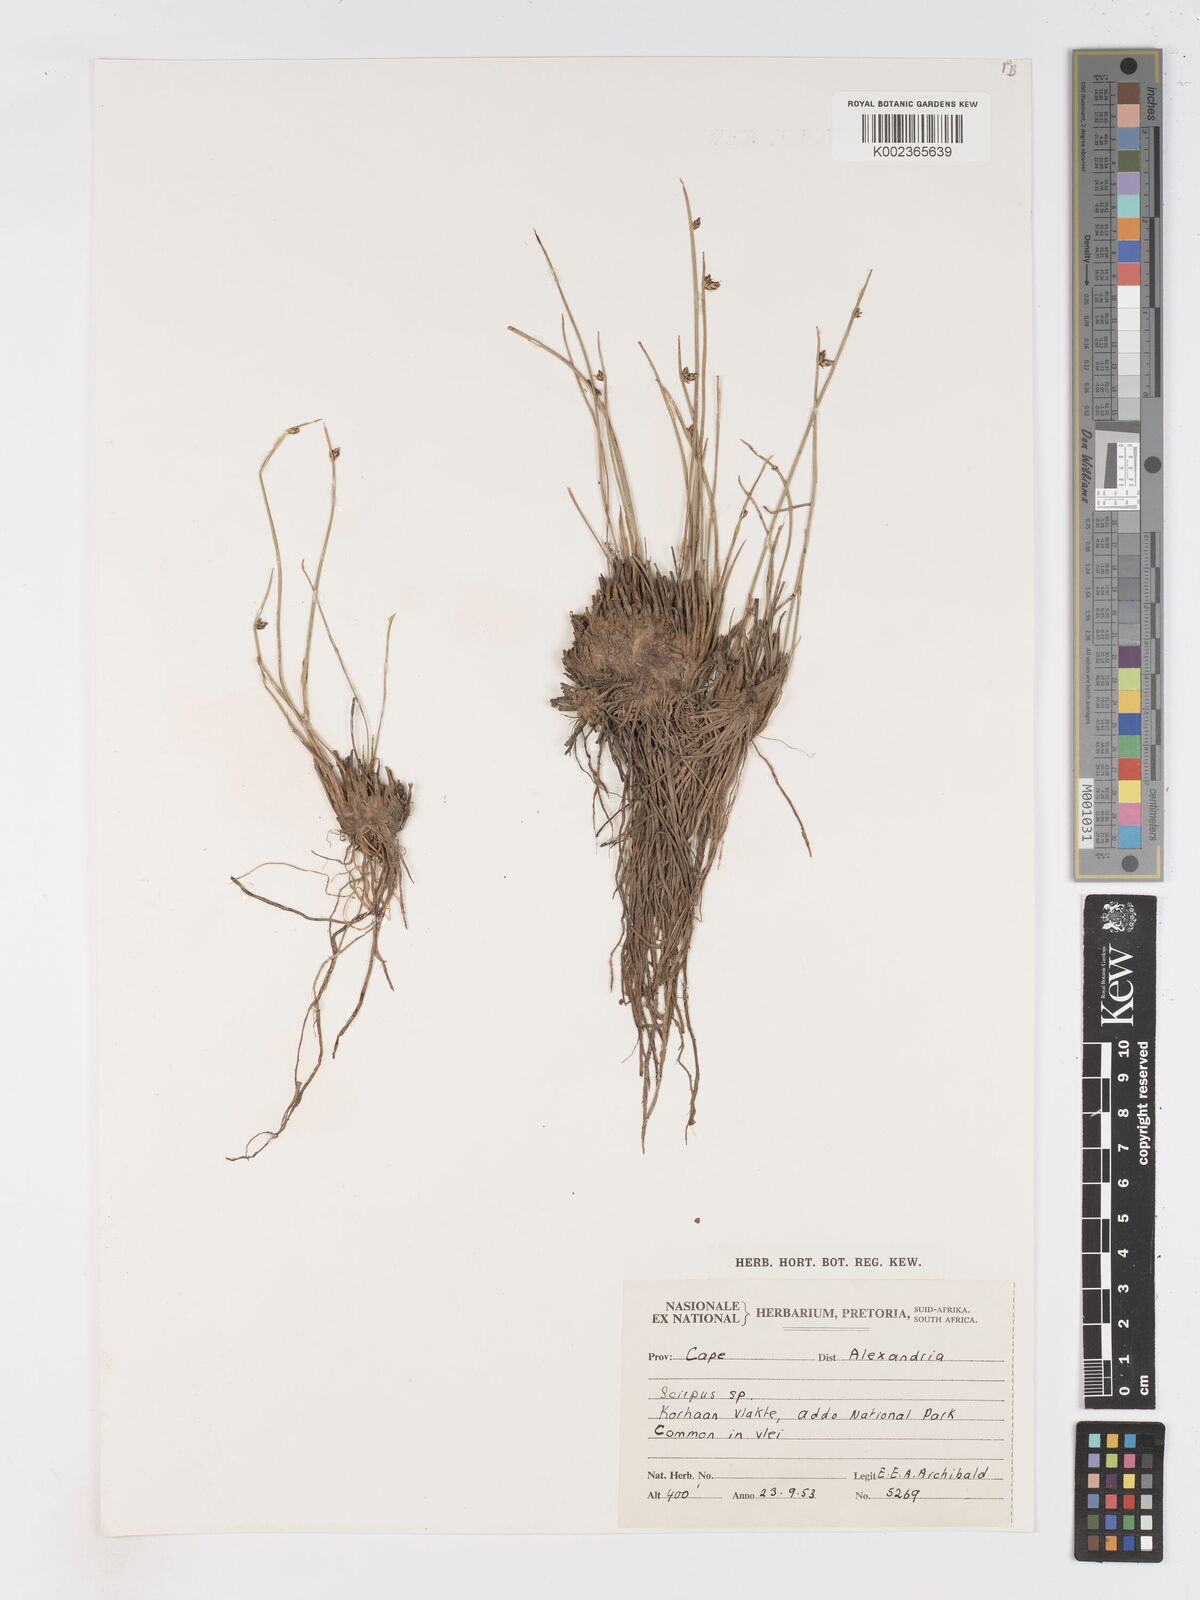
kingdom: Plantae
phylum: Tracheophyta
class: Liliopsida
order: Poales
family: Cyperaceae
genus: Schoenoplectus
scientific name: Schoenoplectus
